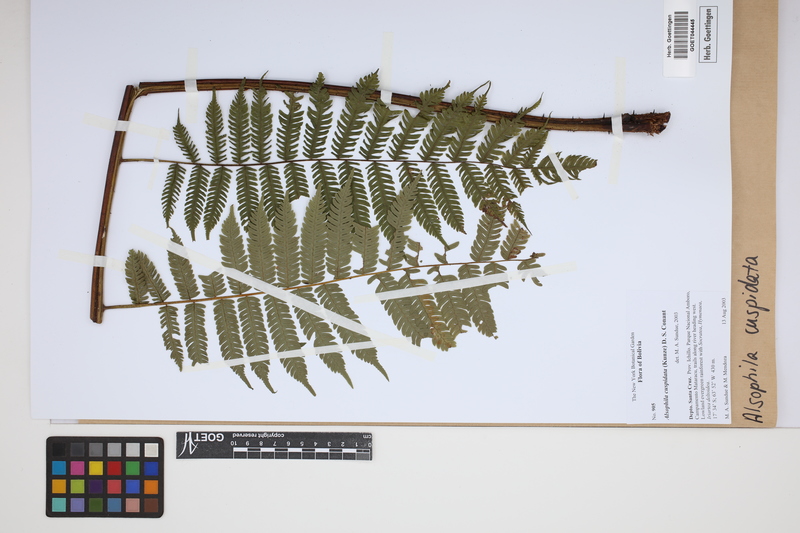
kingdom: Plantae
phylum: Tracheophyta
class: Polypodiopsida
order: Cyatheales
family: Cyatheaceae
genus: Alsophila
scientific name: Alsophila cuspidata
